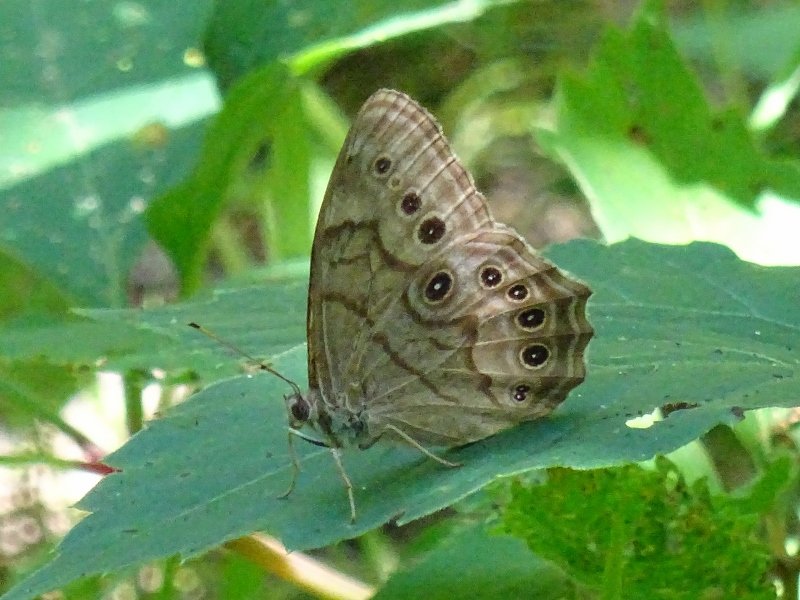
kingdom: Animalia
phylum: Arthropoda
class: Insecta
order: Lepidoptera
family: Nymphalidae
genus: Lethe
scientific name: Lethe anthedon
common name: Northern Pearly-Eye
